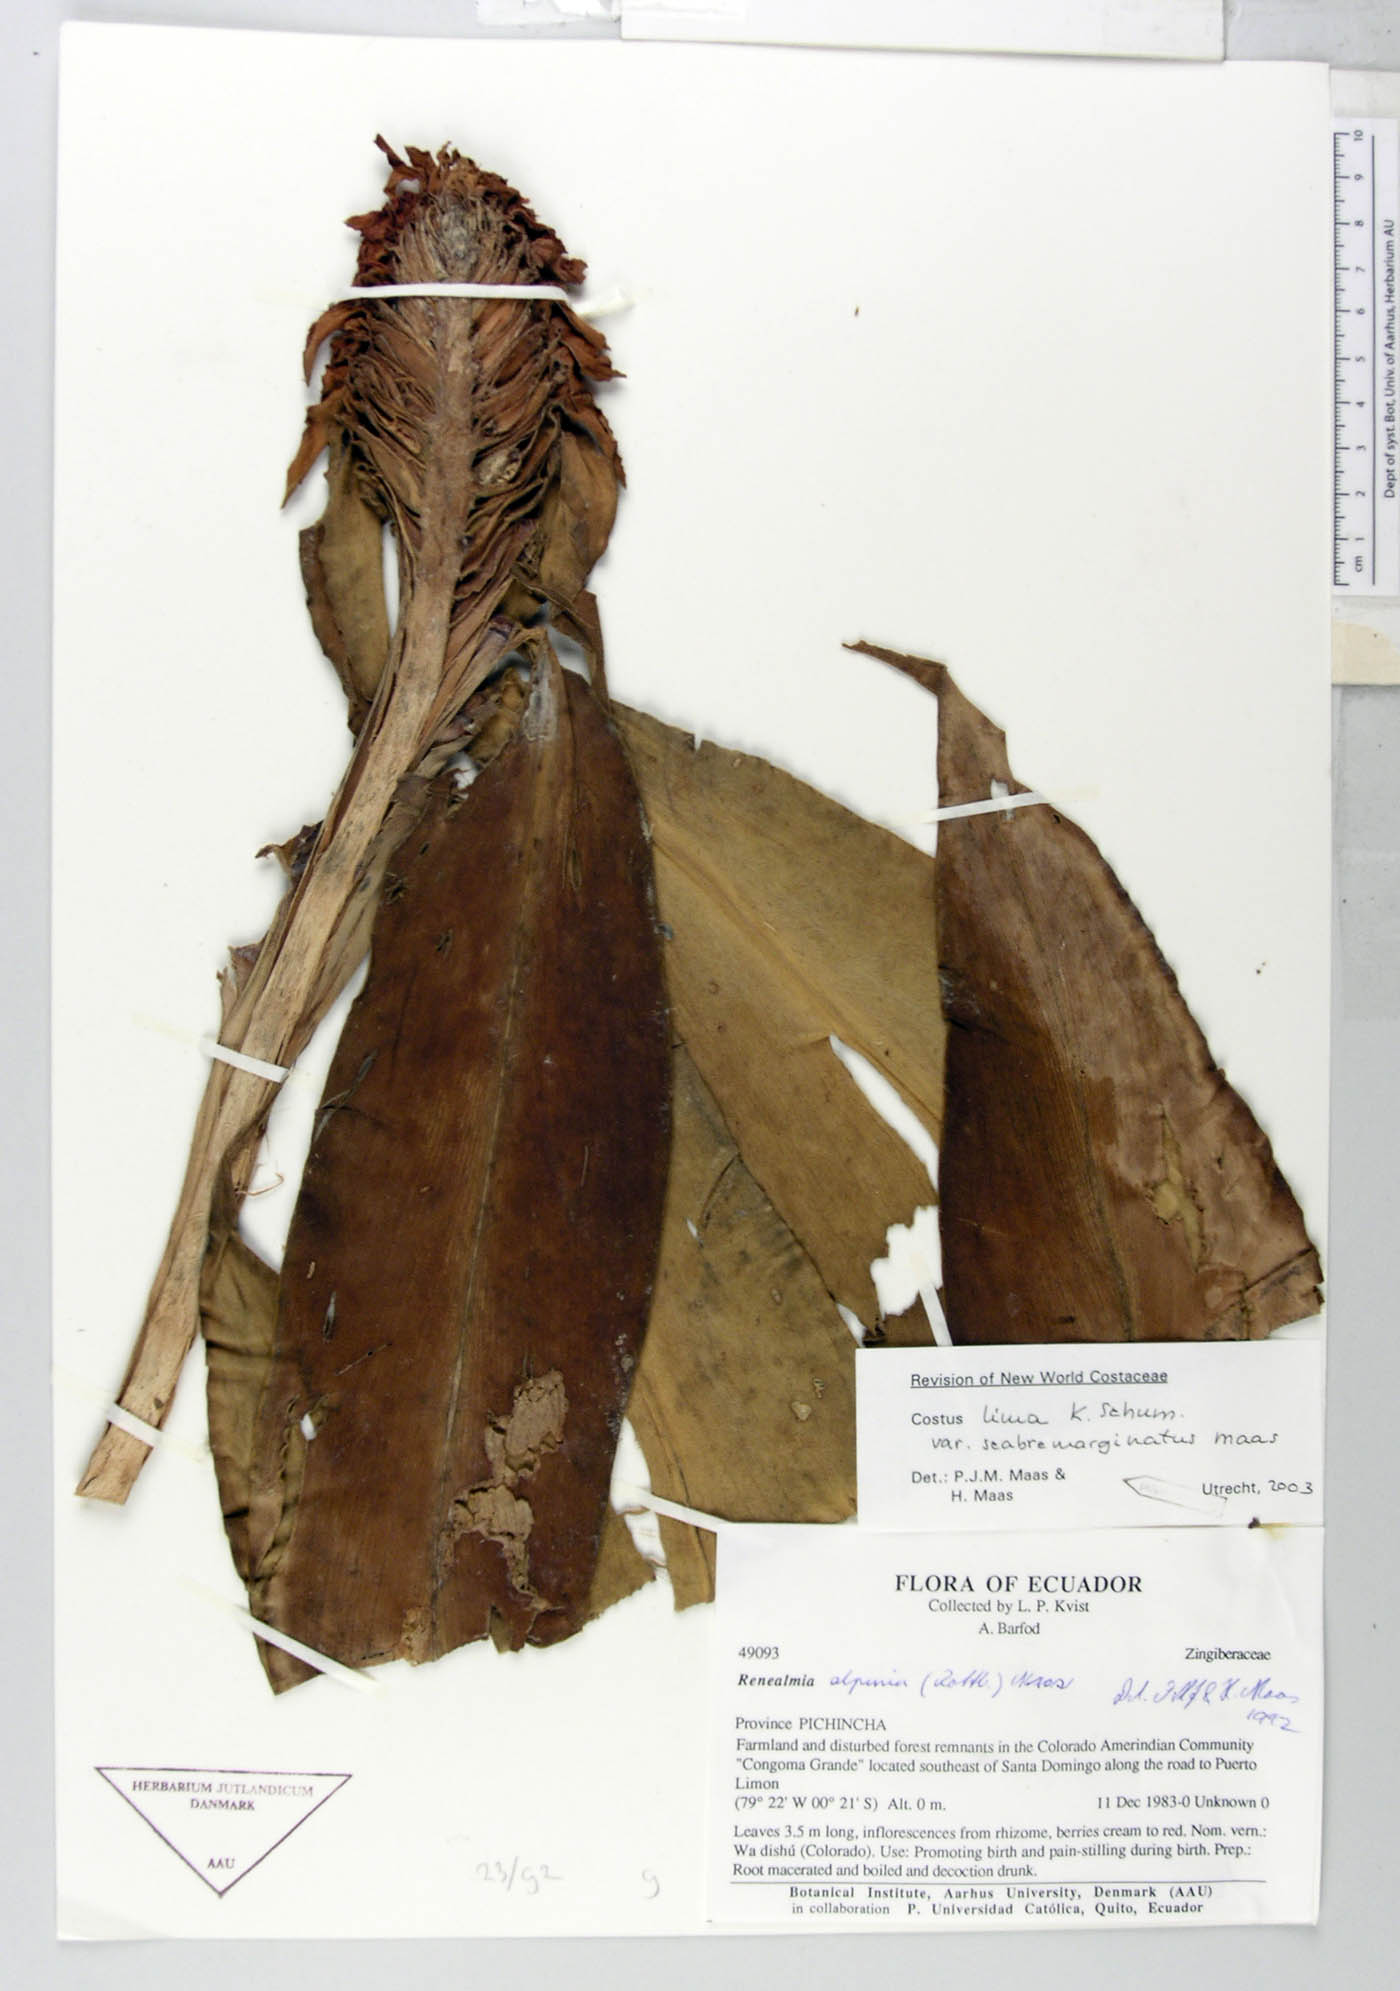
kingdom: Plantae
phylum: Tracheophyta
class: Liliopsida
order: Zingiberales
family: Costaceae
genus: Costus
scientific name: Costus lima
